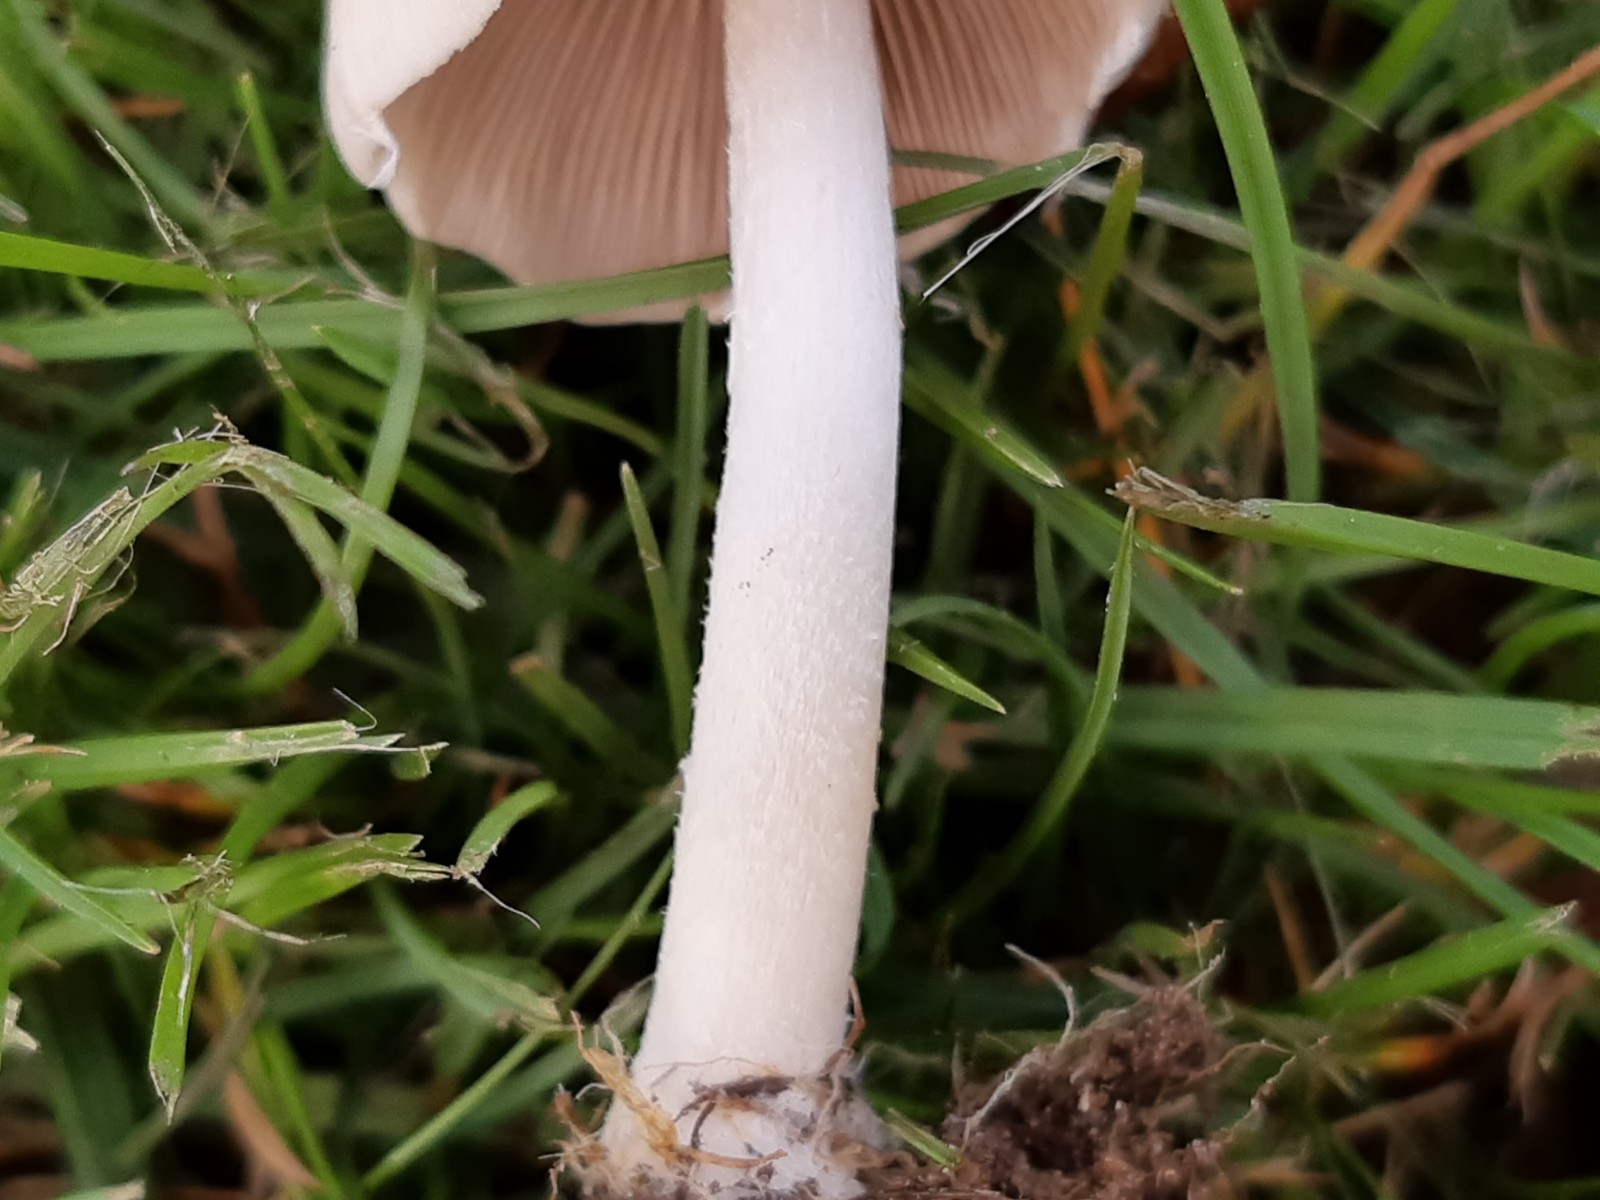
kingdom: Fungi
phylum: Basidiomycota
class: Agaricomycetes
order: Agaricales
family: Psathyrellaceae
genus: Candolleomyces
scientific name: Candolleomyces candolleanus
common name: Candolles mørkhat
